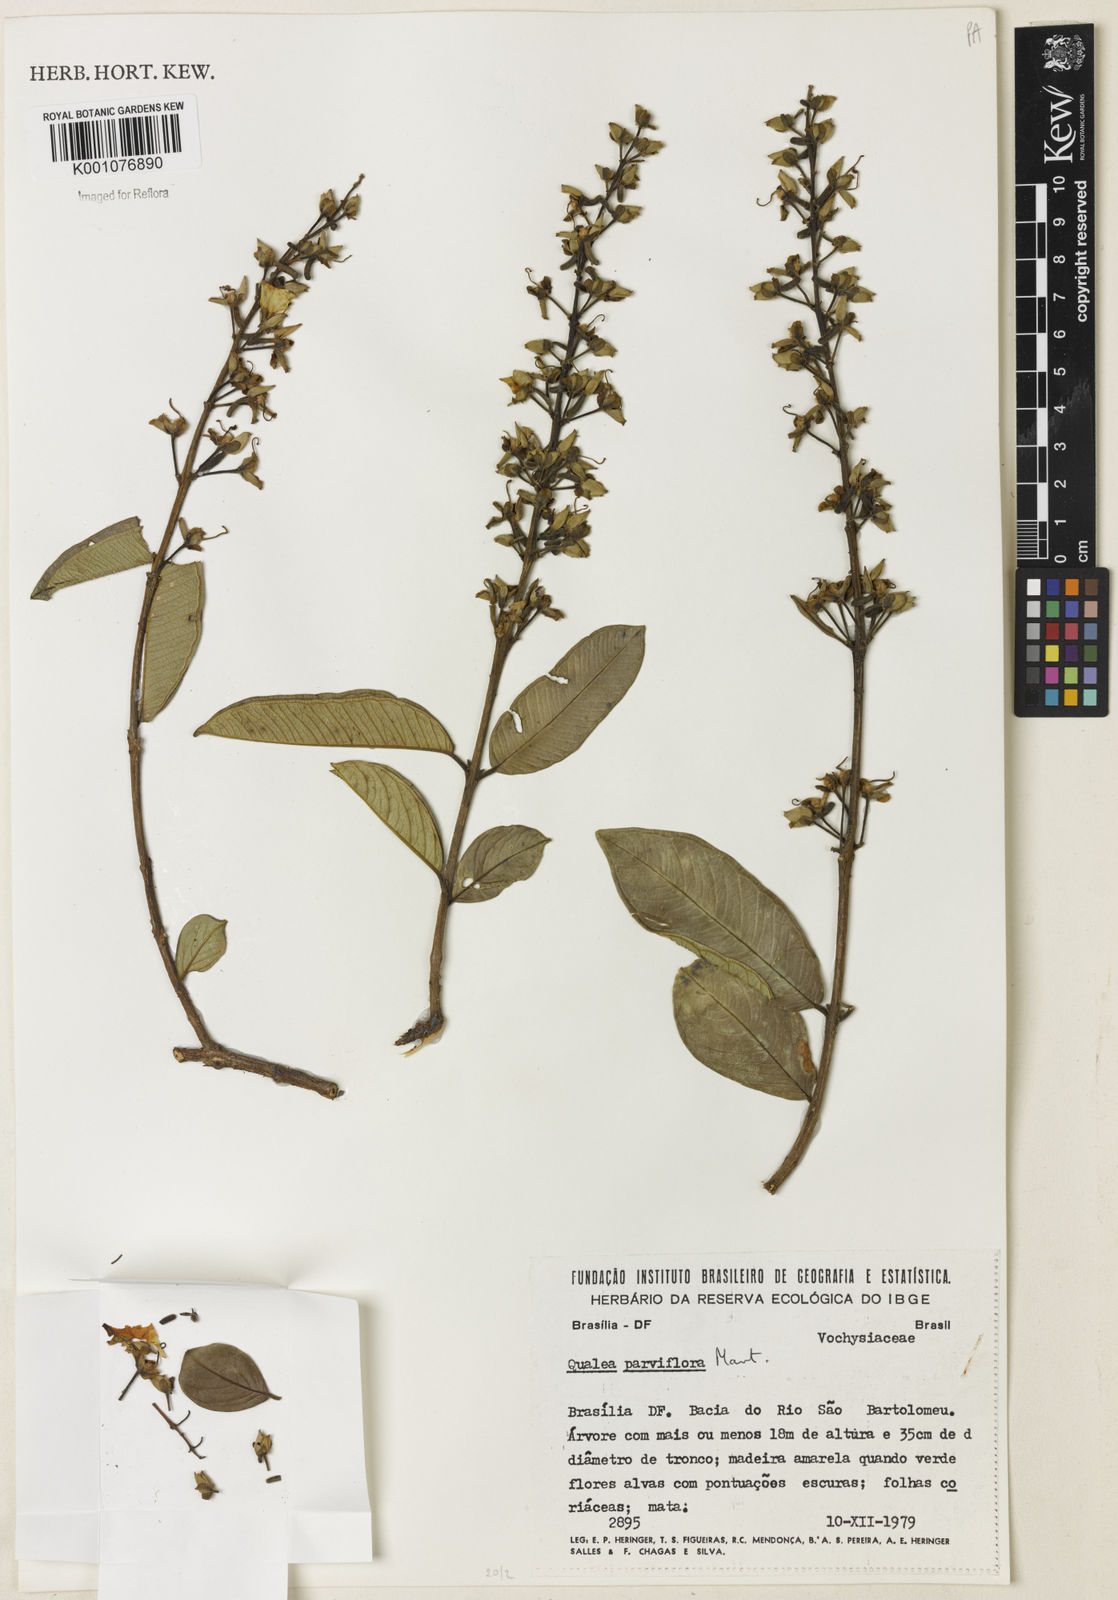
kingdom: Plantae
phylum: Tracheophyta
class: Magnoliopsida
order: Myrtales
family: Vochysiaceae
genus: Qualea
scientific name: Qualea parviflora
